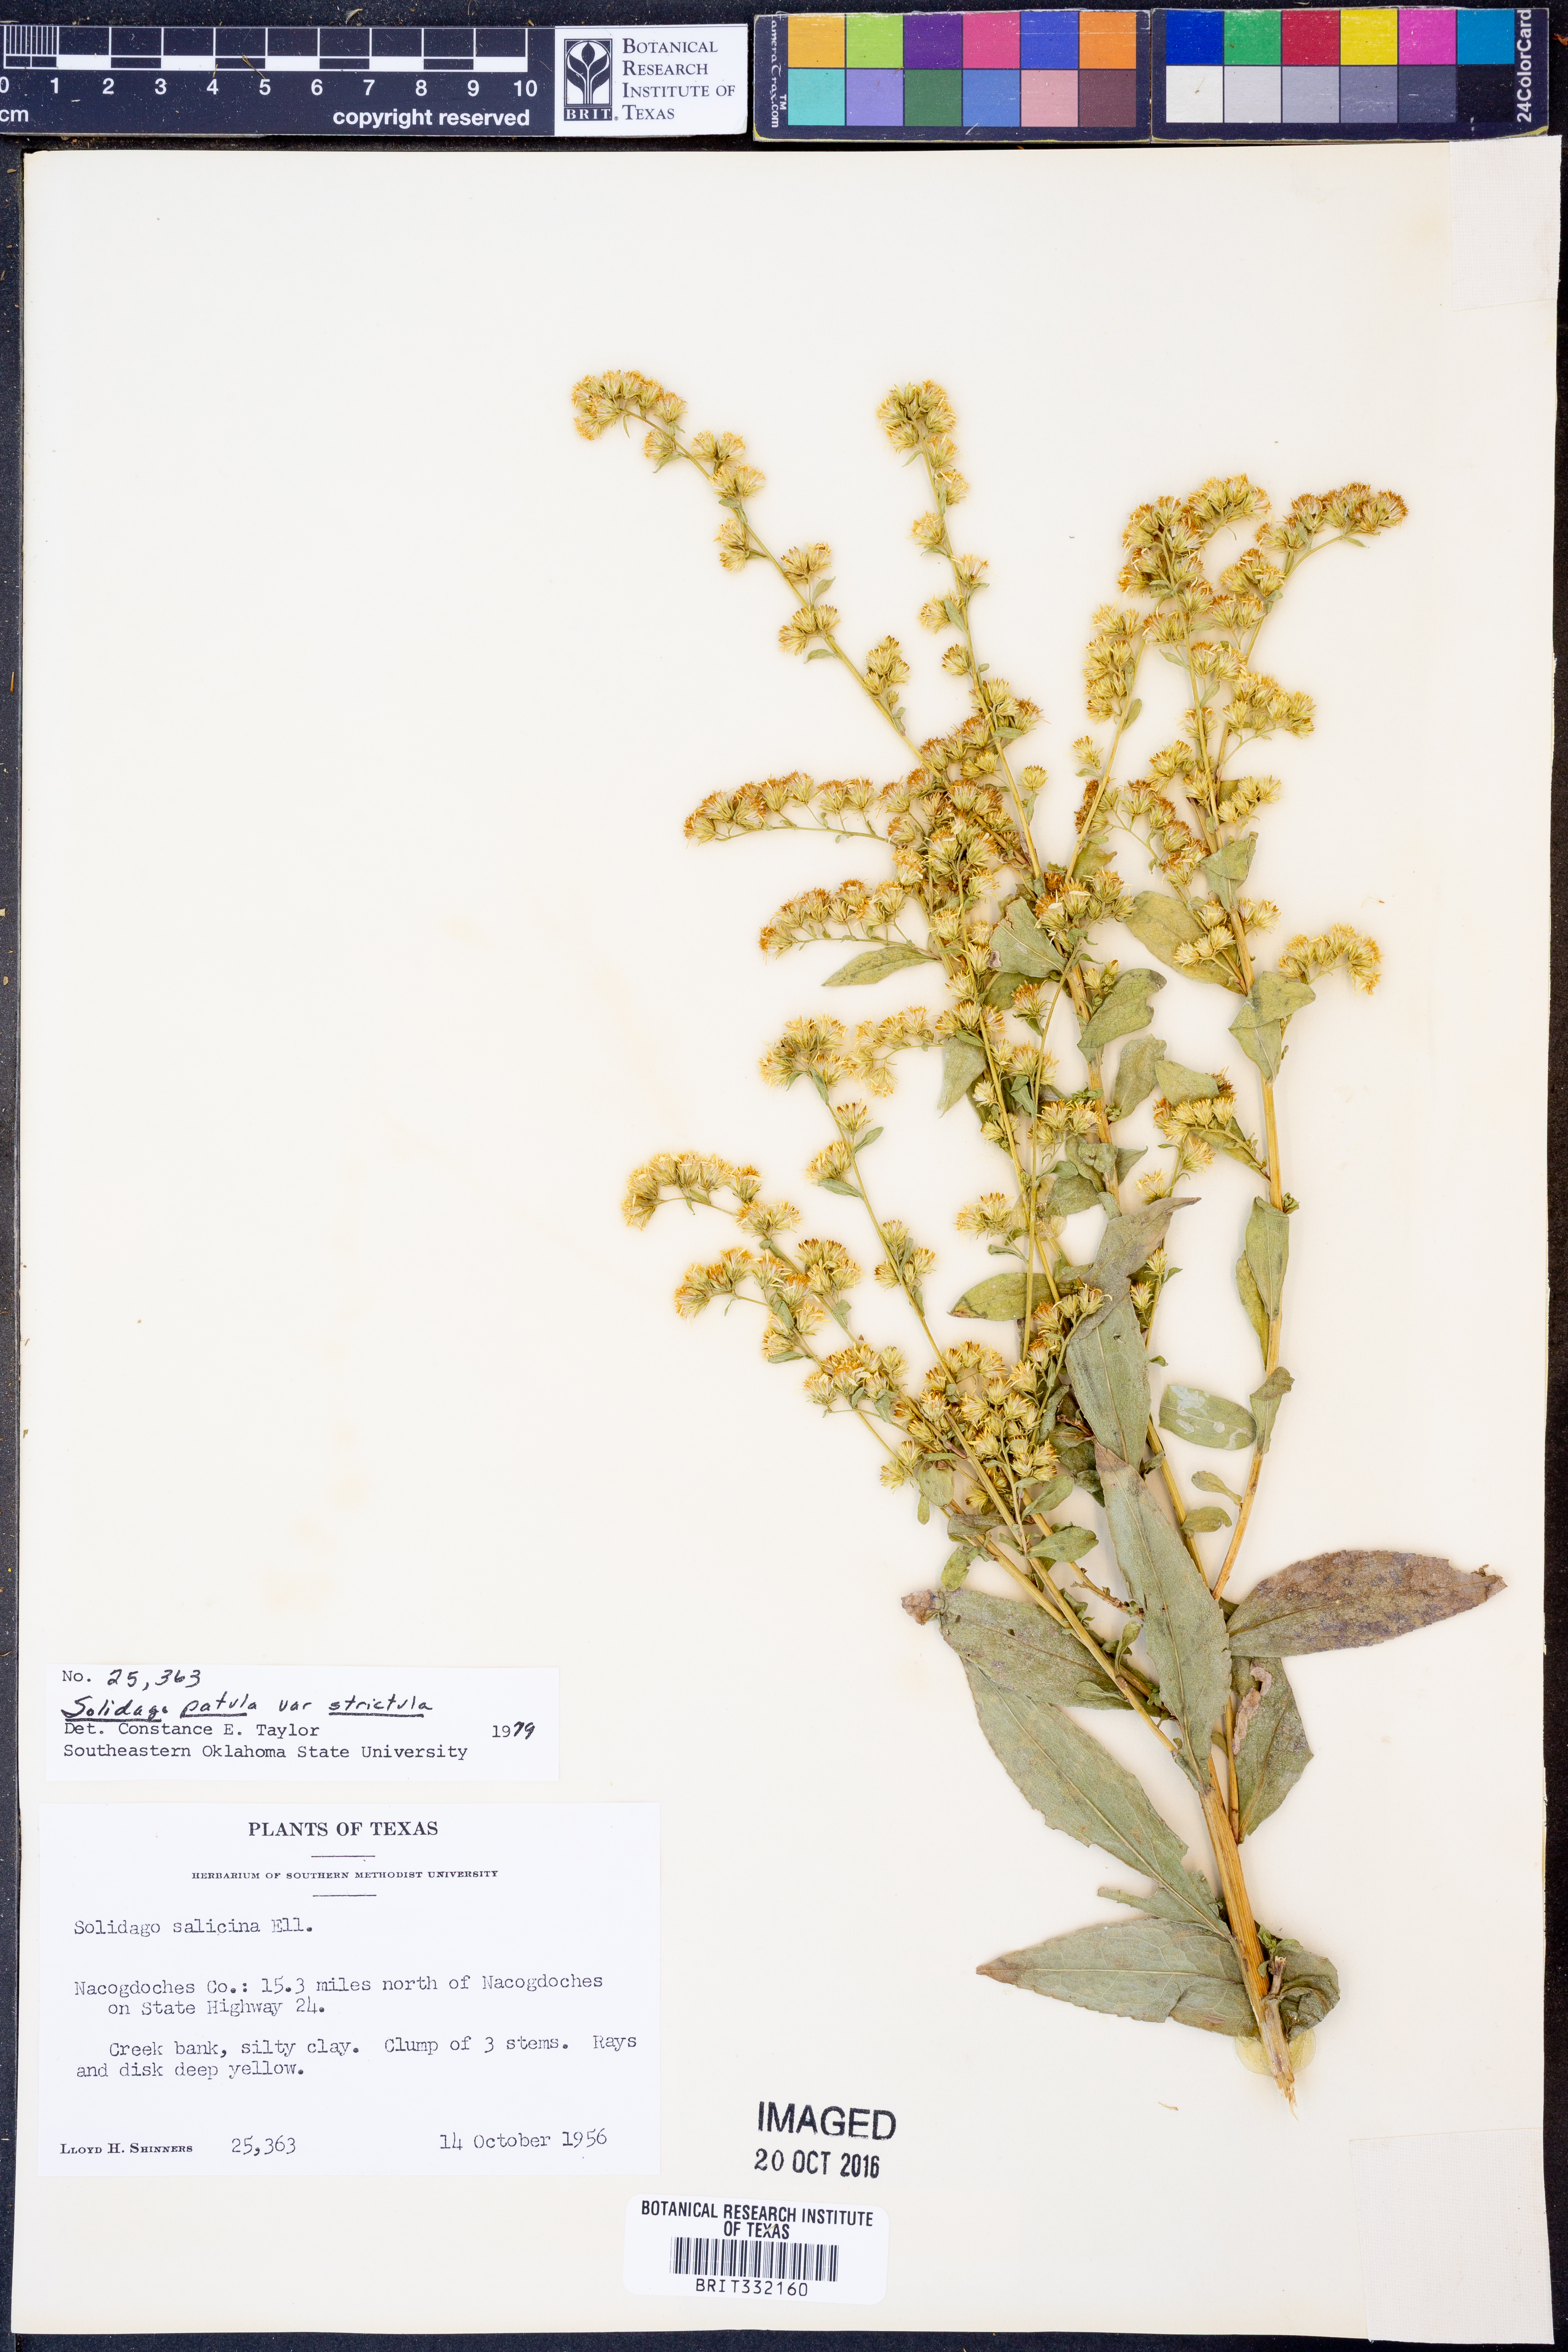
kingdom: Plantae
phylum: Tracheophyta
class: Magnoliopsida
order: Asterales
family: Asteraceae
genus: Solidago
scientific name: Solidago salicina
